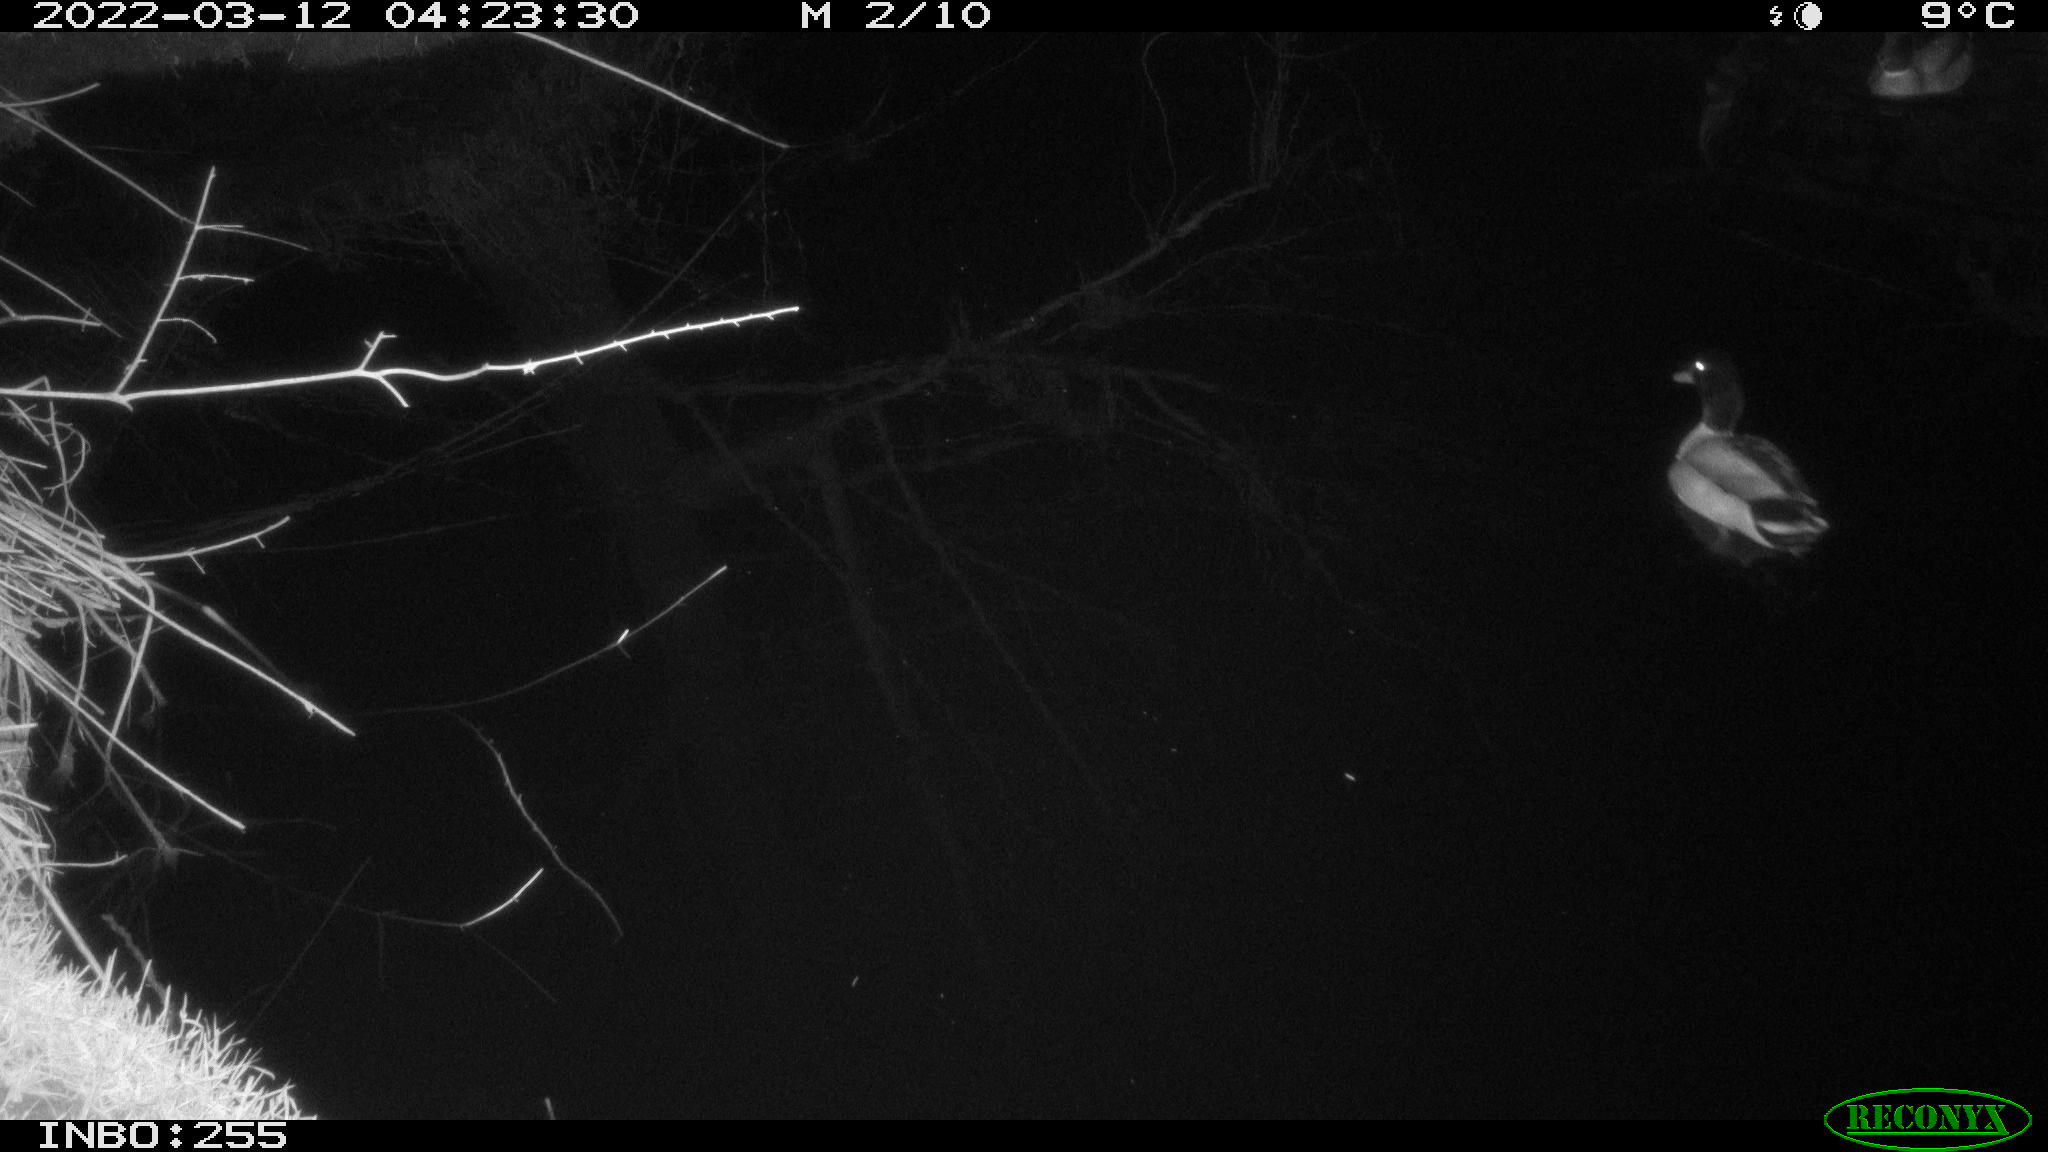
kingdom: Animalia
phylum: Chordata
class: Aves
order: Anseriformes
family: Anatidae
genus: Anas
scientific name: Anas platyrhynchos
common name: Mallard
